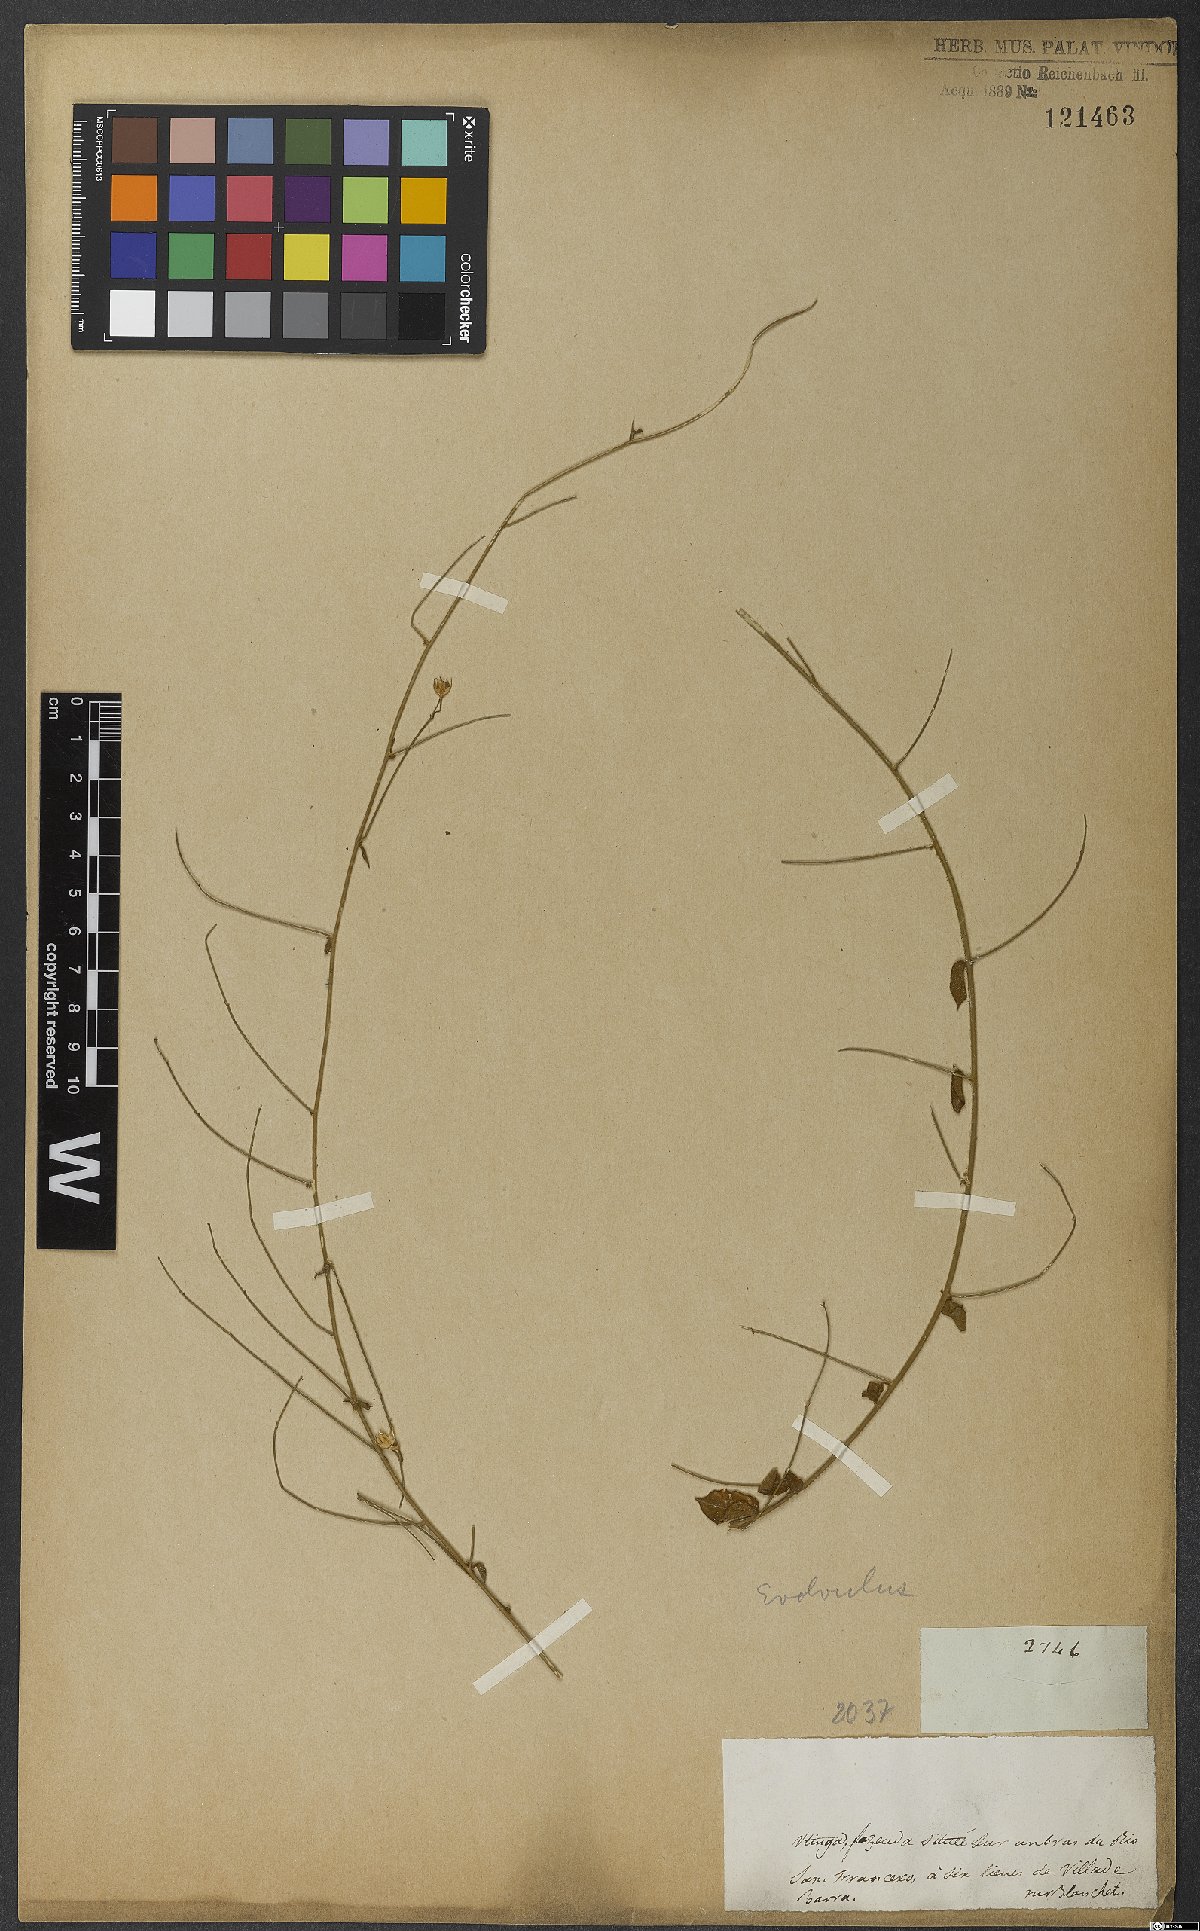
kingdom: Plantae
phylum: Tracheophyta
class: Magnoliopsida
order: Solanales
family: Convolvulaceae
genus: Evolvulus
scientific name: Evolvulus
